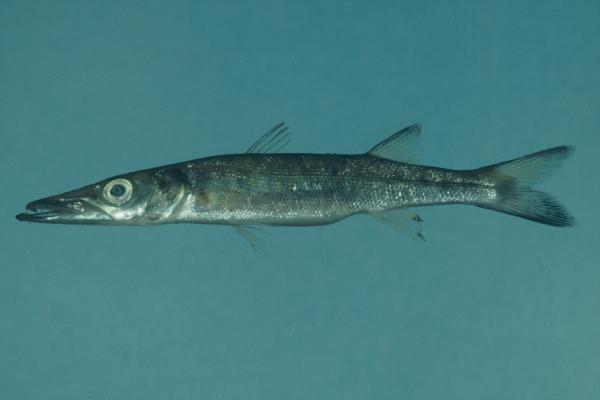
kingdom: Animalia
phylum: Chordata
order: Perciformes
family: Sphyraenidae
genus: Sphyraena
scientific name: Sphyraena forsteri
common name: Bigeye barracuda
